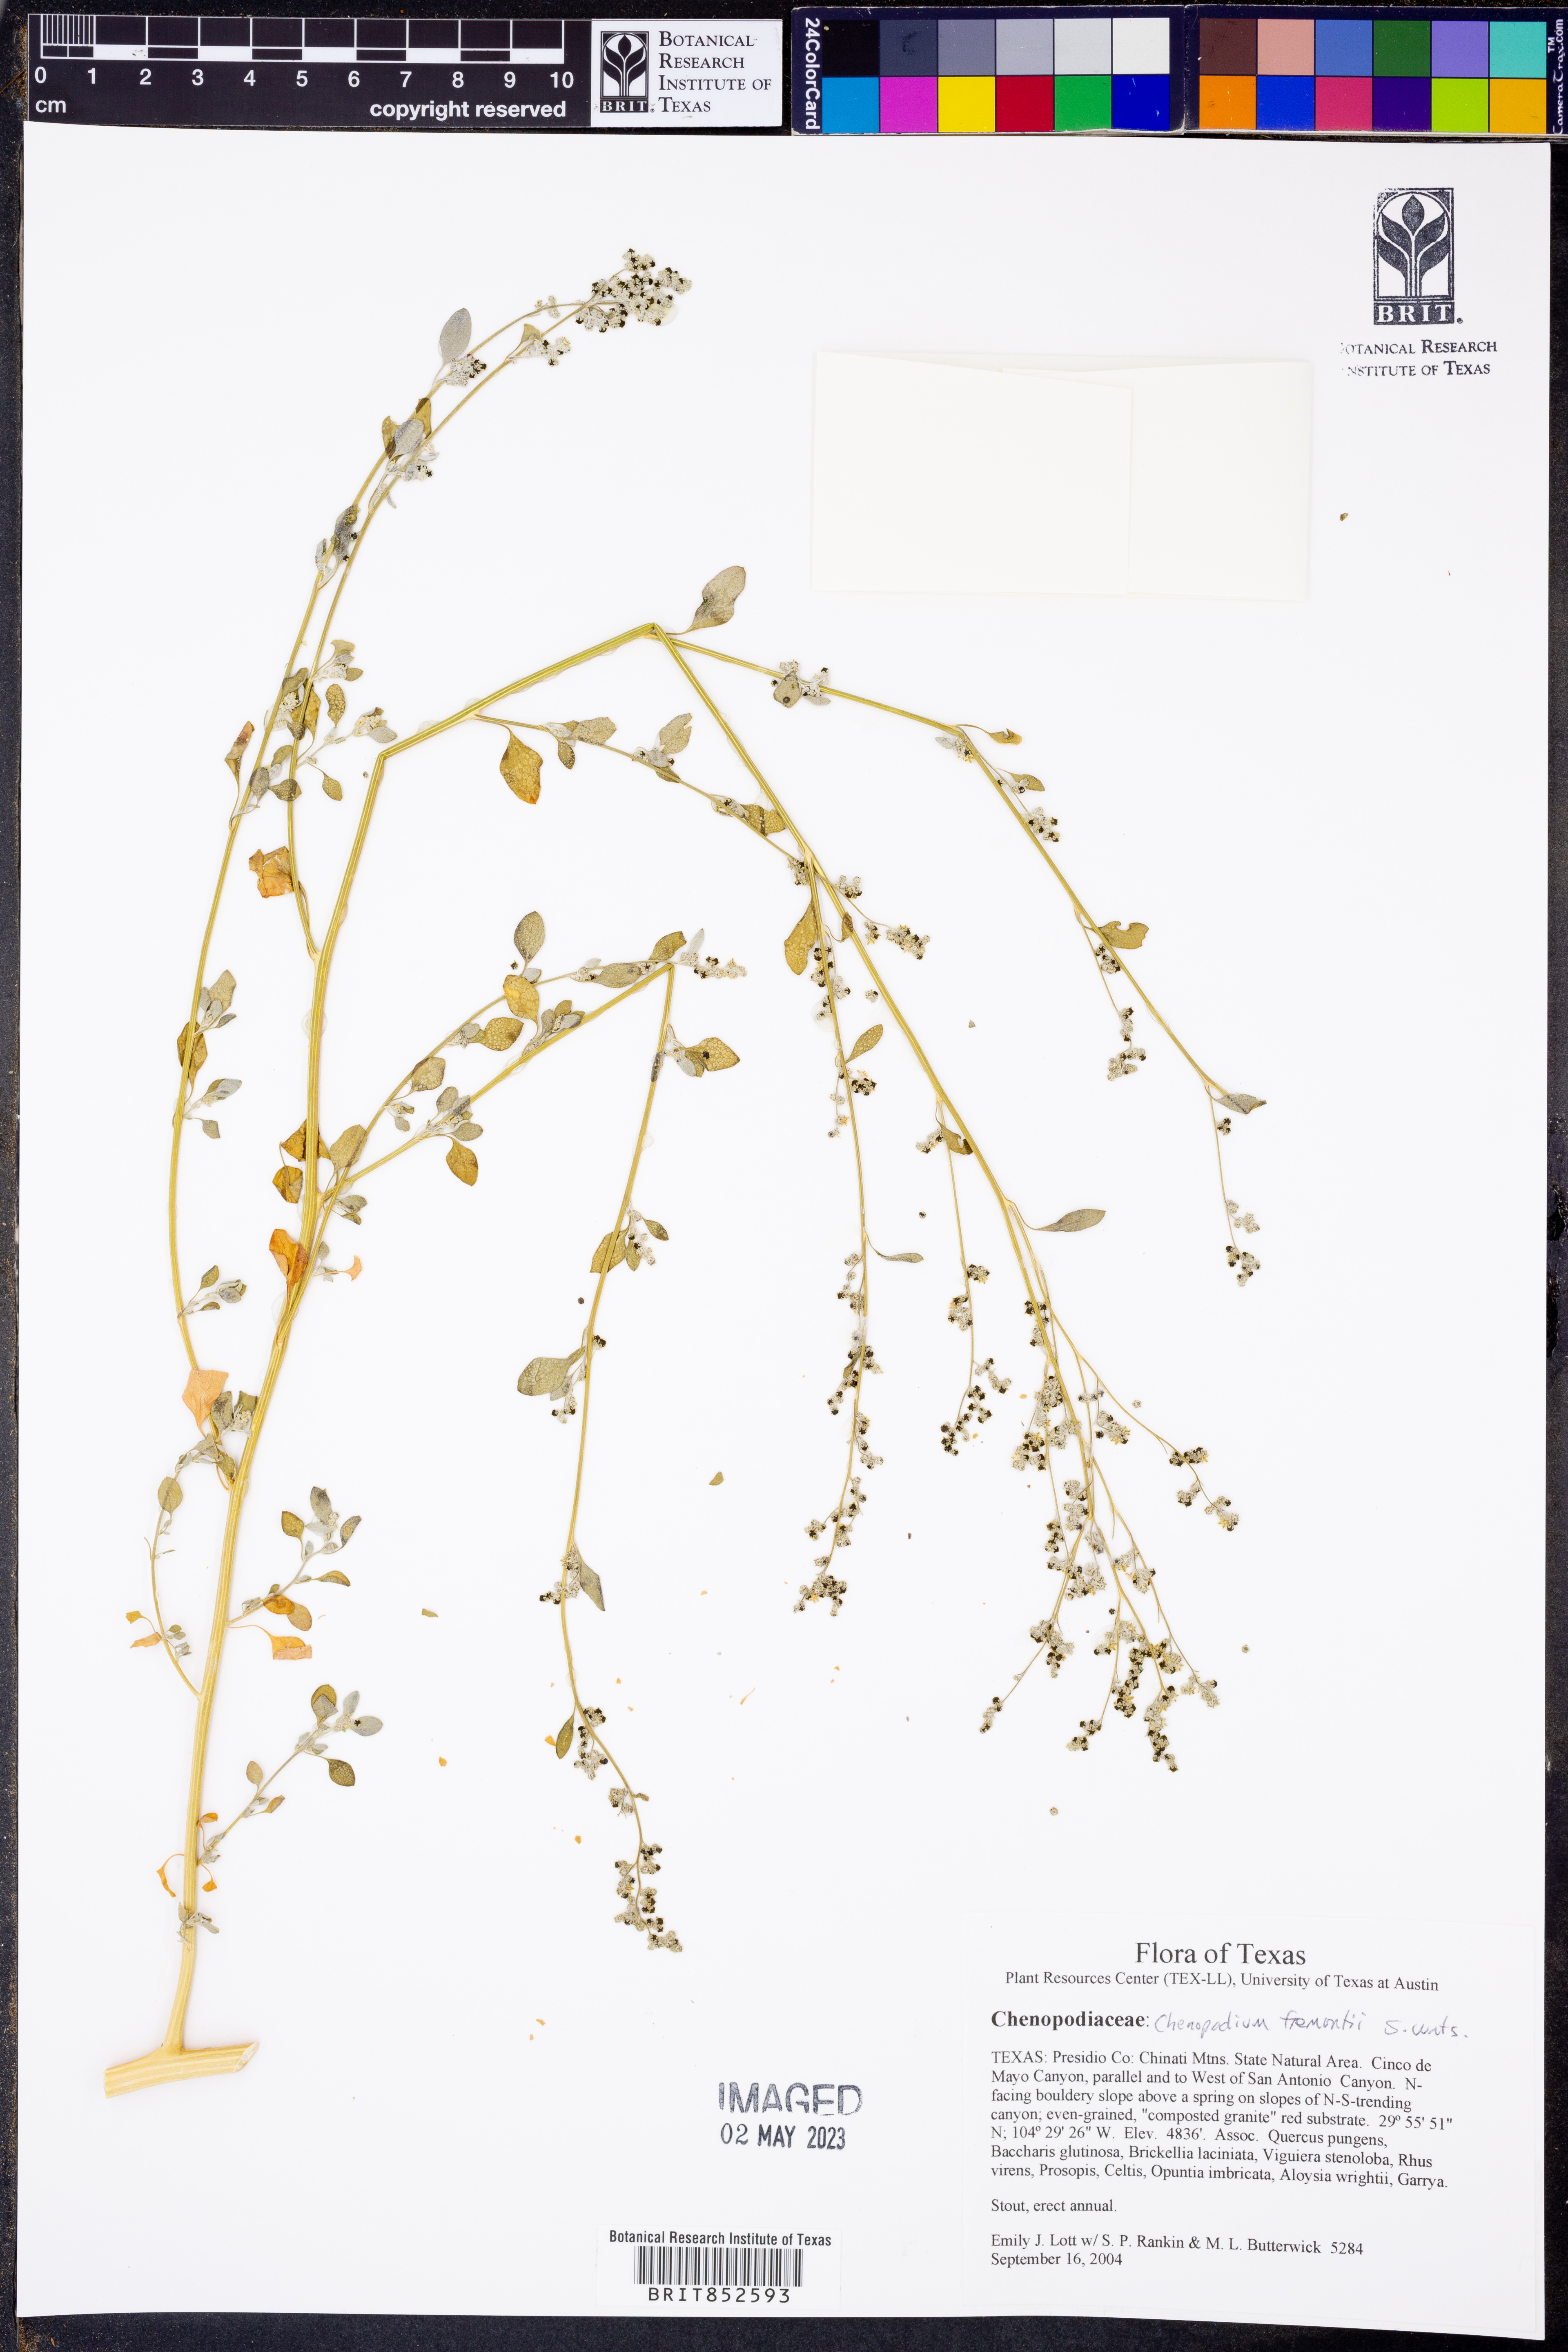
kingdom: Plantae
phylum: Tracheophyta
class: Magnoliopsida
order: Caryophyllales
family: Amaranthaceae
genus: Chenopodium
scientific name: Chenopodium fremontii
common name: Fremont's goosefoot
